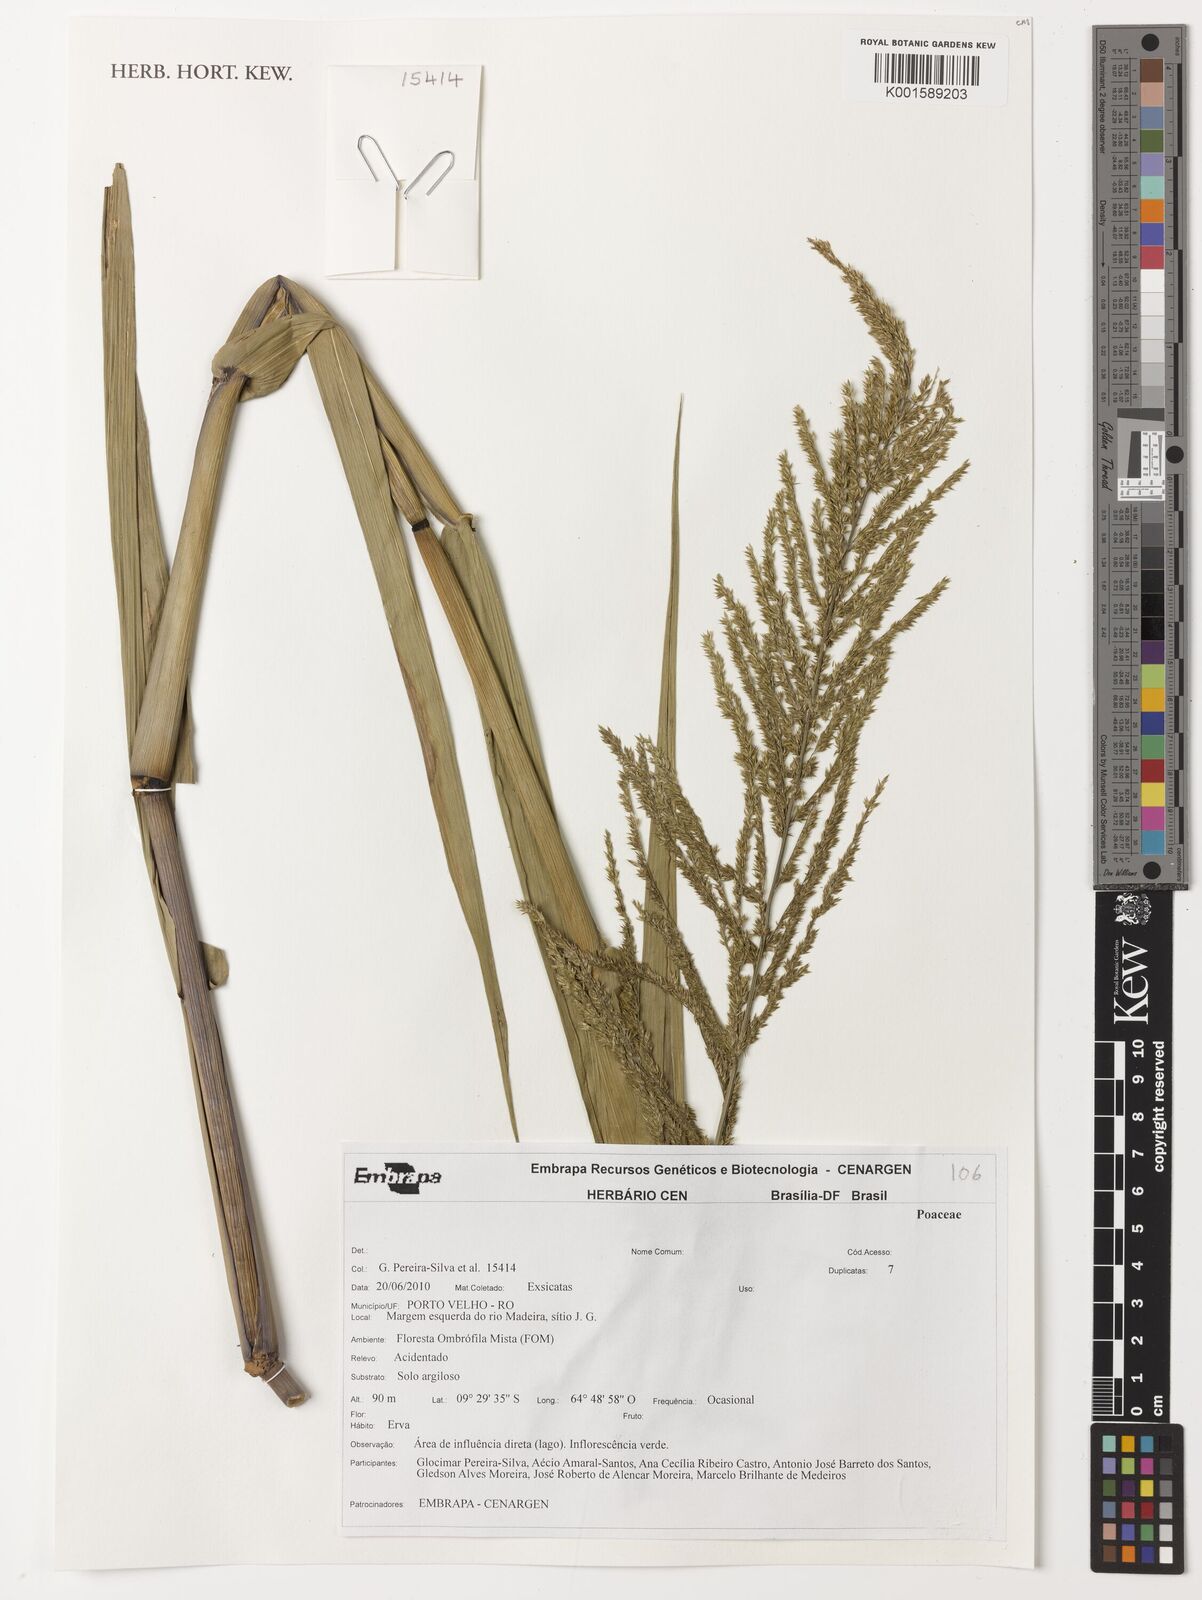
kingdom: Plantae
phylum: Tracheophyta
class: Liliopsida
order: Poales
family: Poaceae
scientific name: Poaceae
